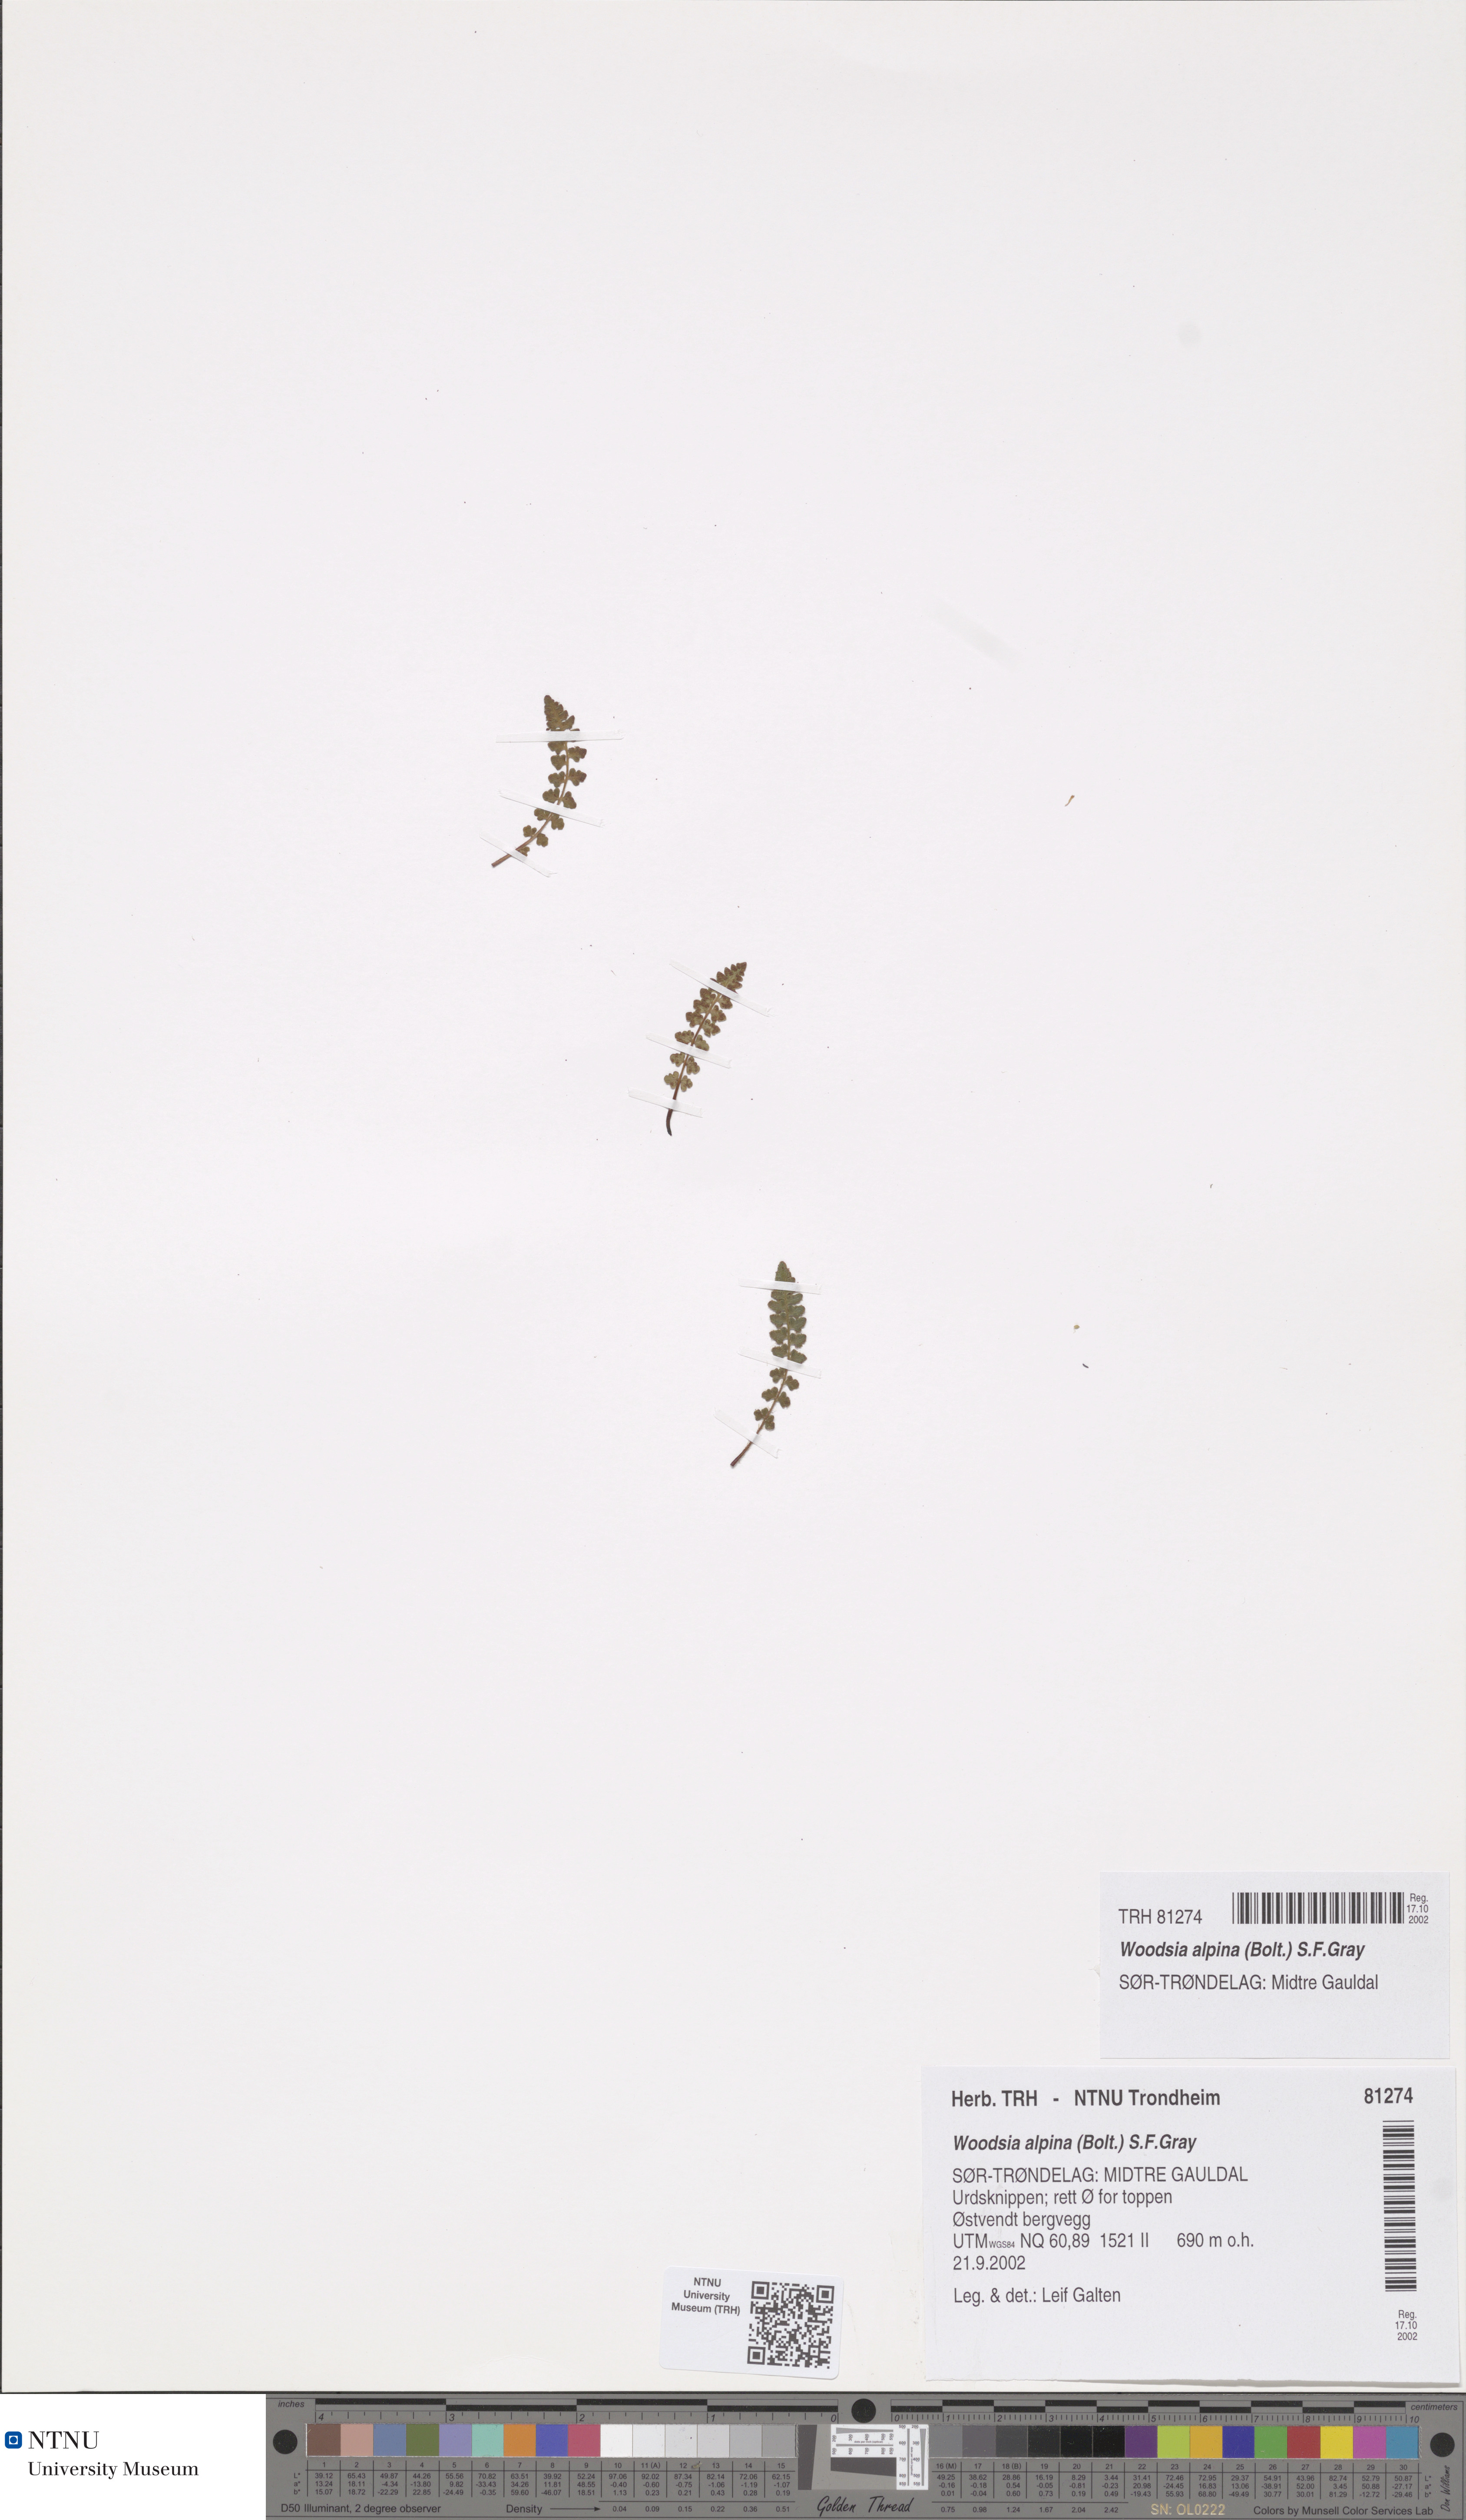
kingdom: Plantae
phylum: Tracheophyta
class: Polypodiopsida
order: Polypodiales
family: Woodsiaceae
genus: Woodsia
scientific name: Woodsia alpina
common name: Alpine woodsia
